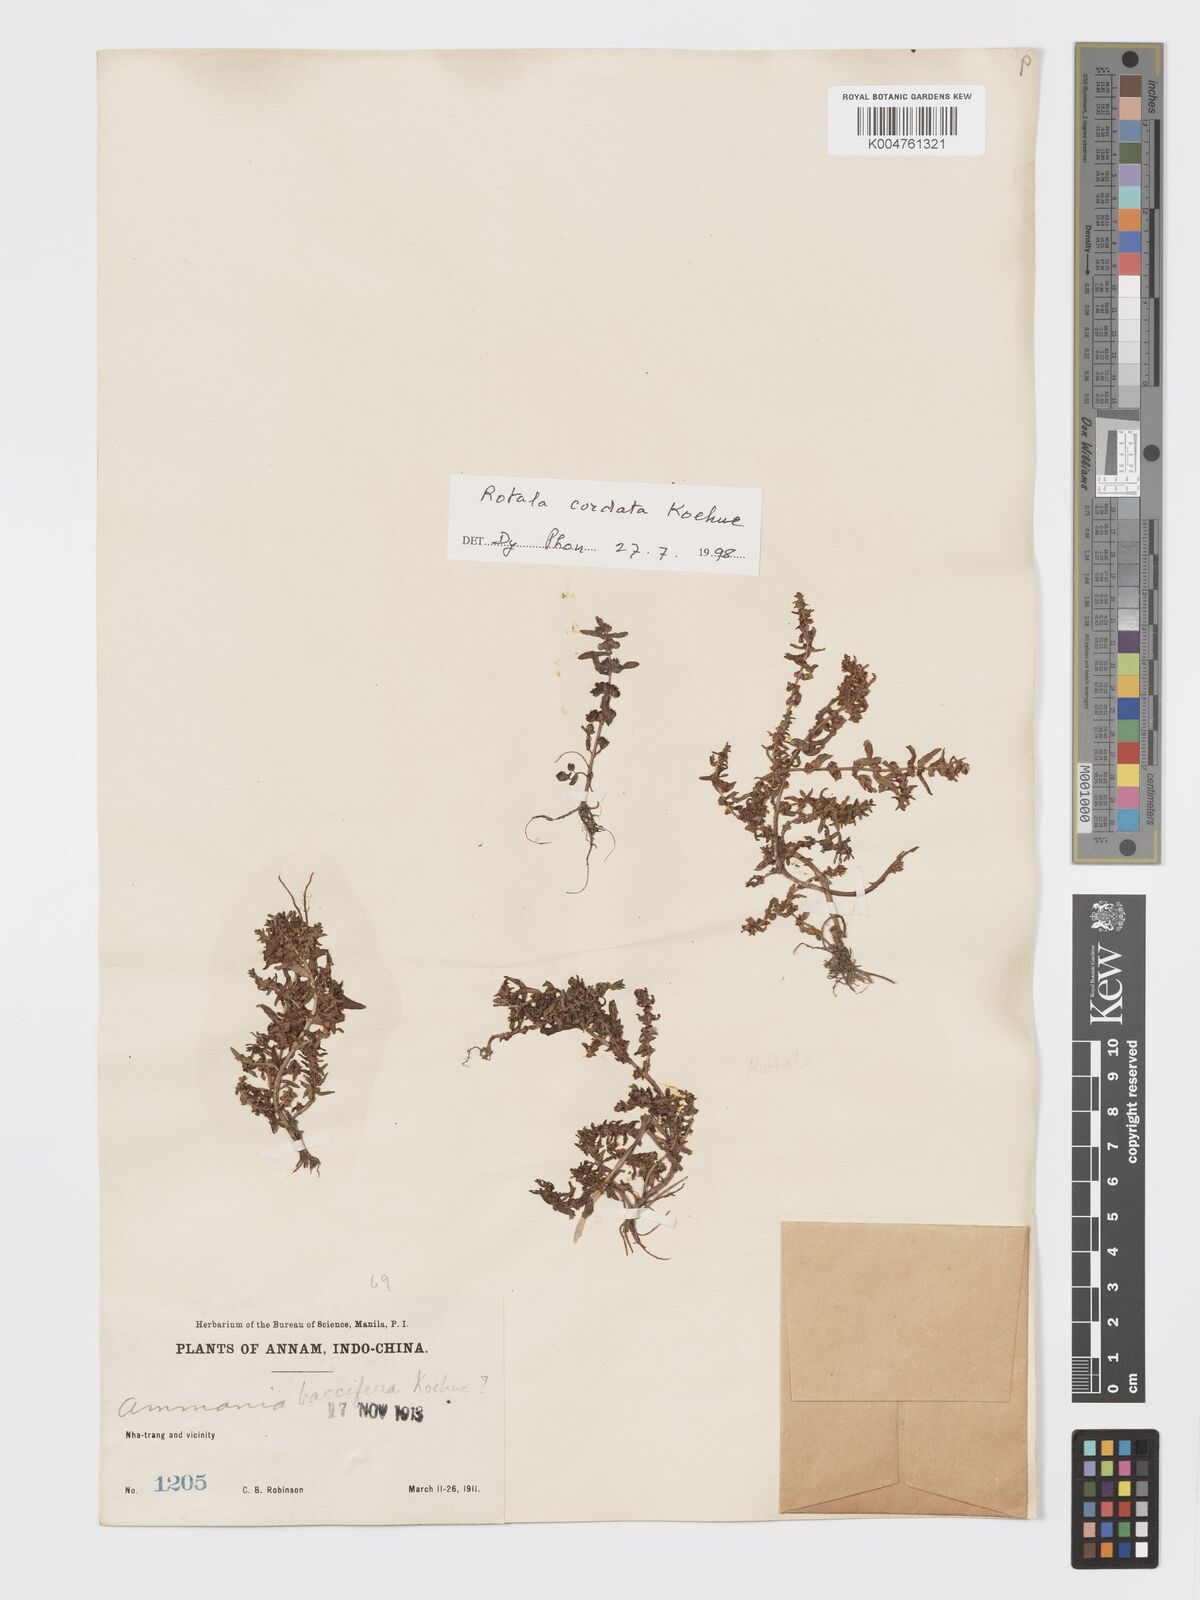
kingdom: Plantae
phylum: Tracheophyta
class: Magnoliopsida
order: Myrtales
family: Lythraceae
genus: Rotala
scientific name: Rotala cordata
